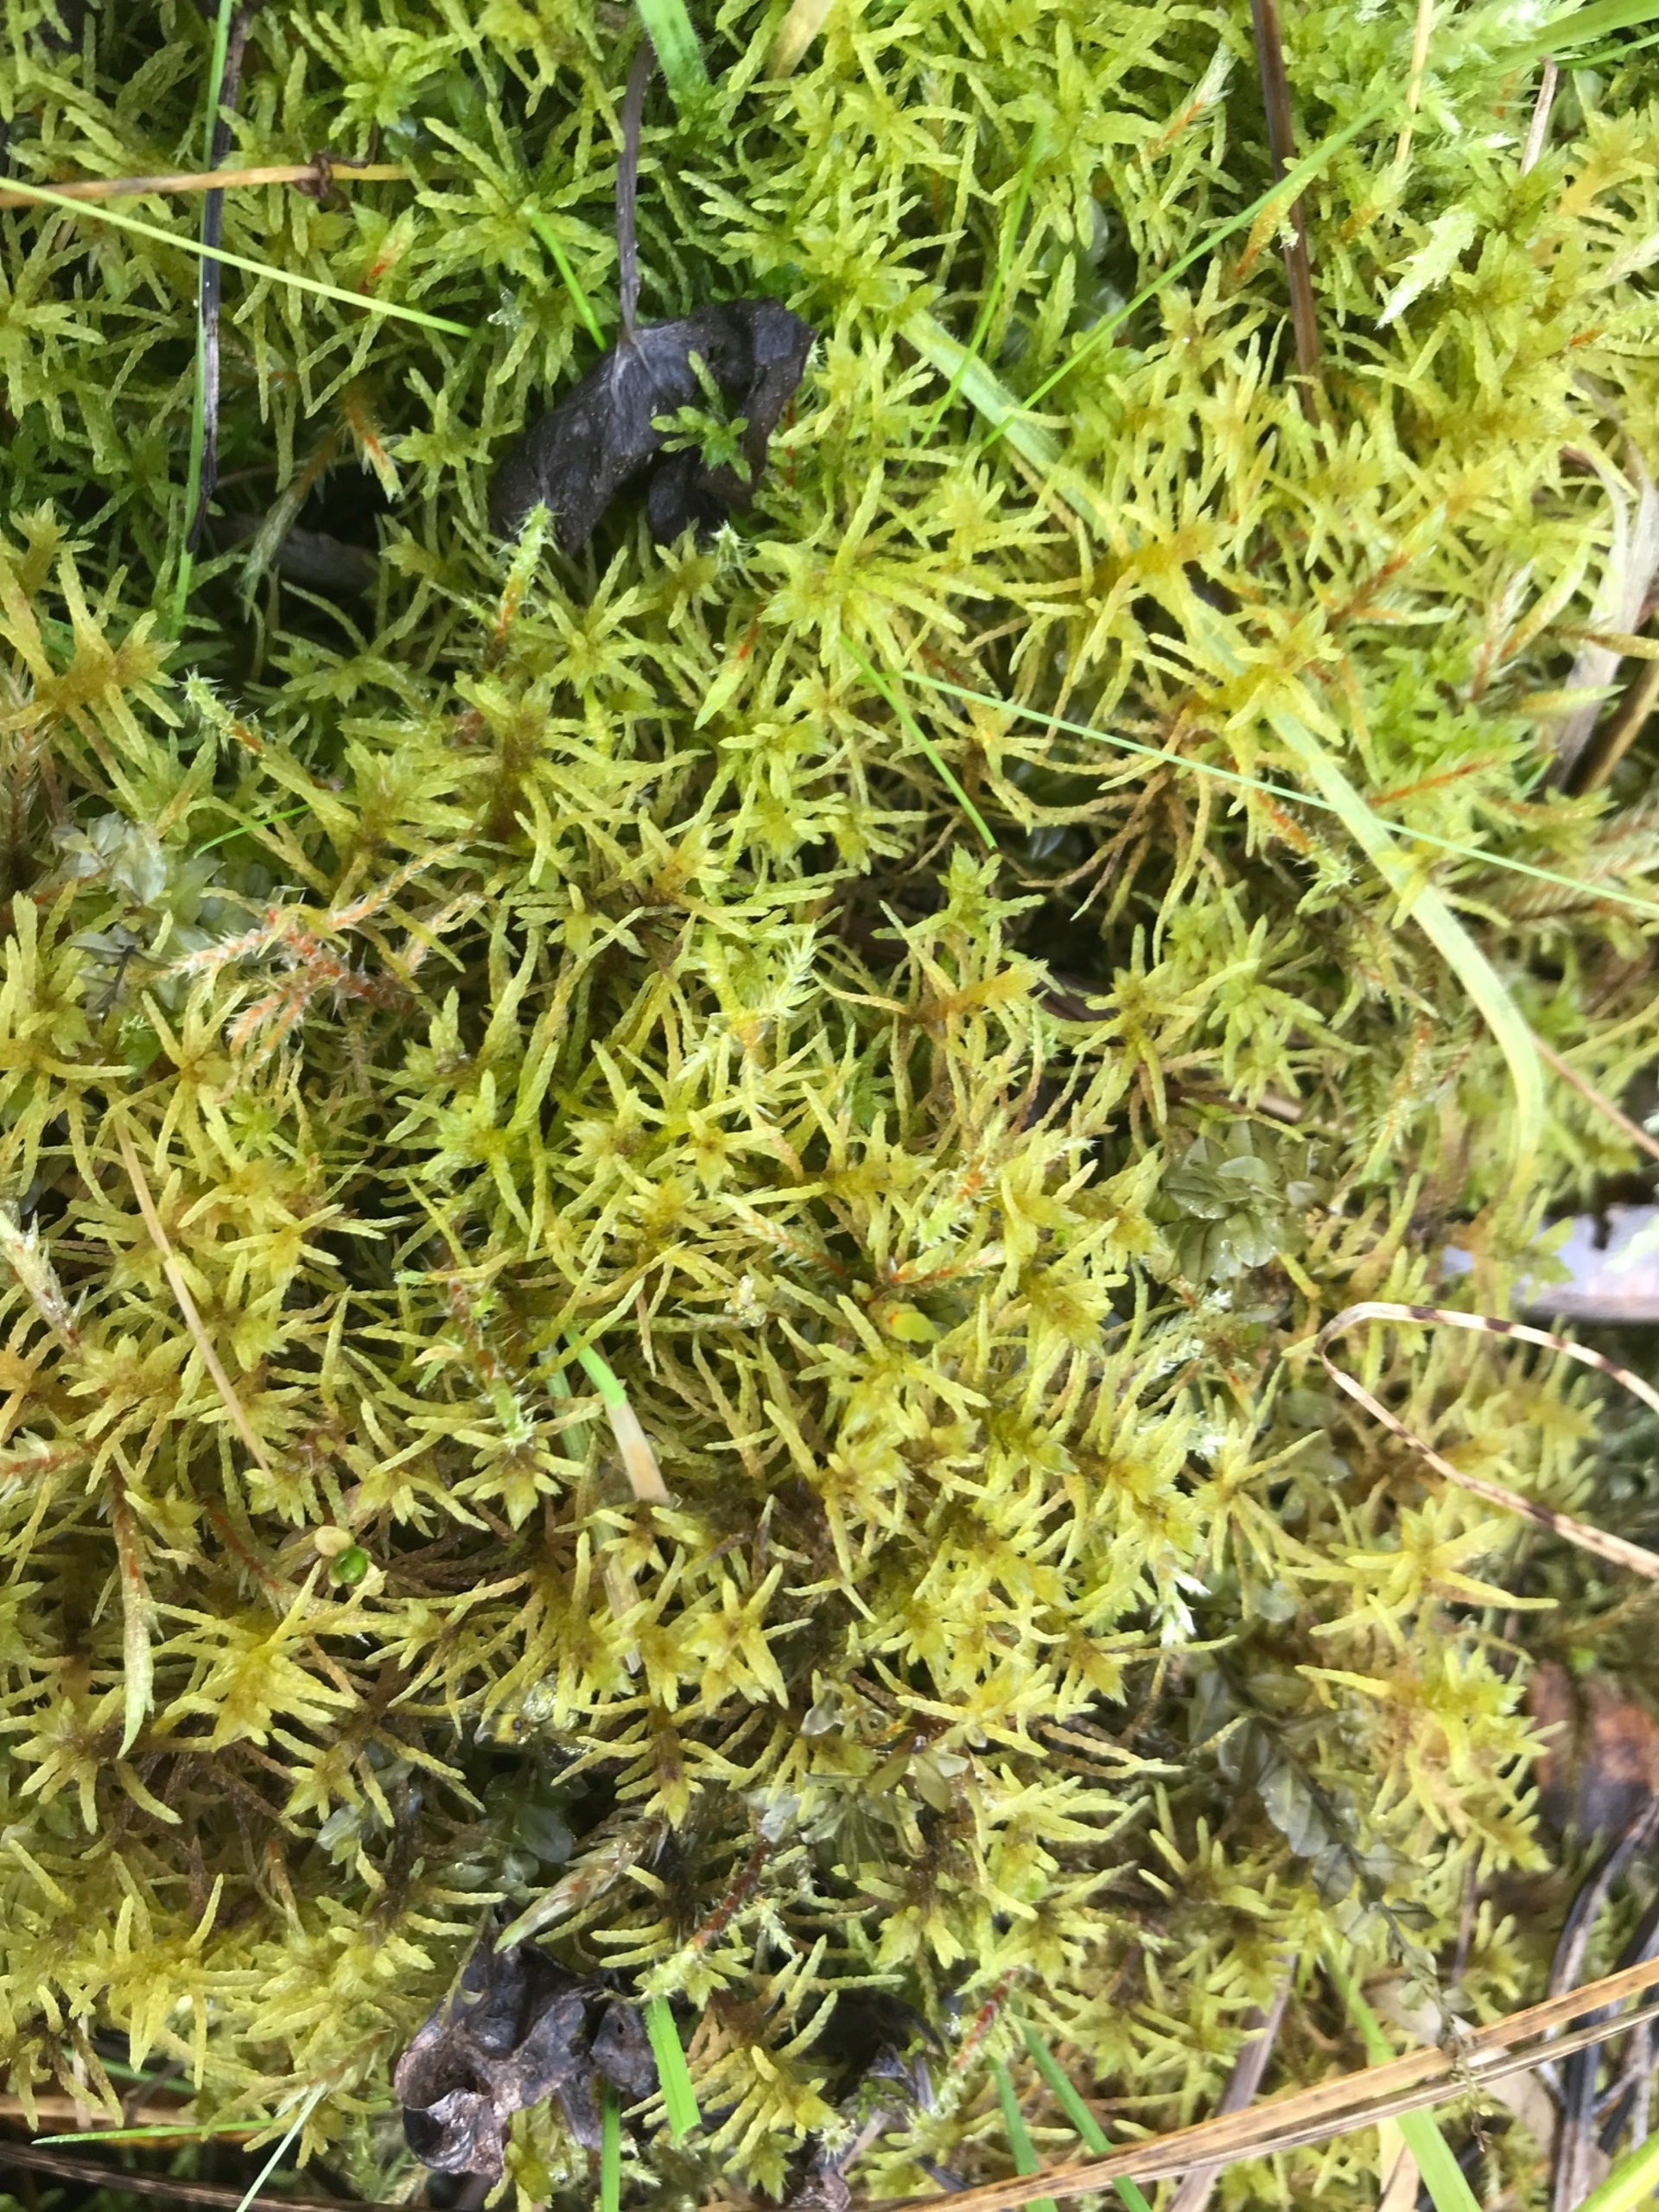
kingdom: Plantae
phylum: Bryophyta
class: Bryopsida
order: Hypnales
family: Helodiaceae
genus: Helodium
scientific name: Helodium blandowii
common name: Kær-gyldenmos
